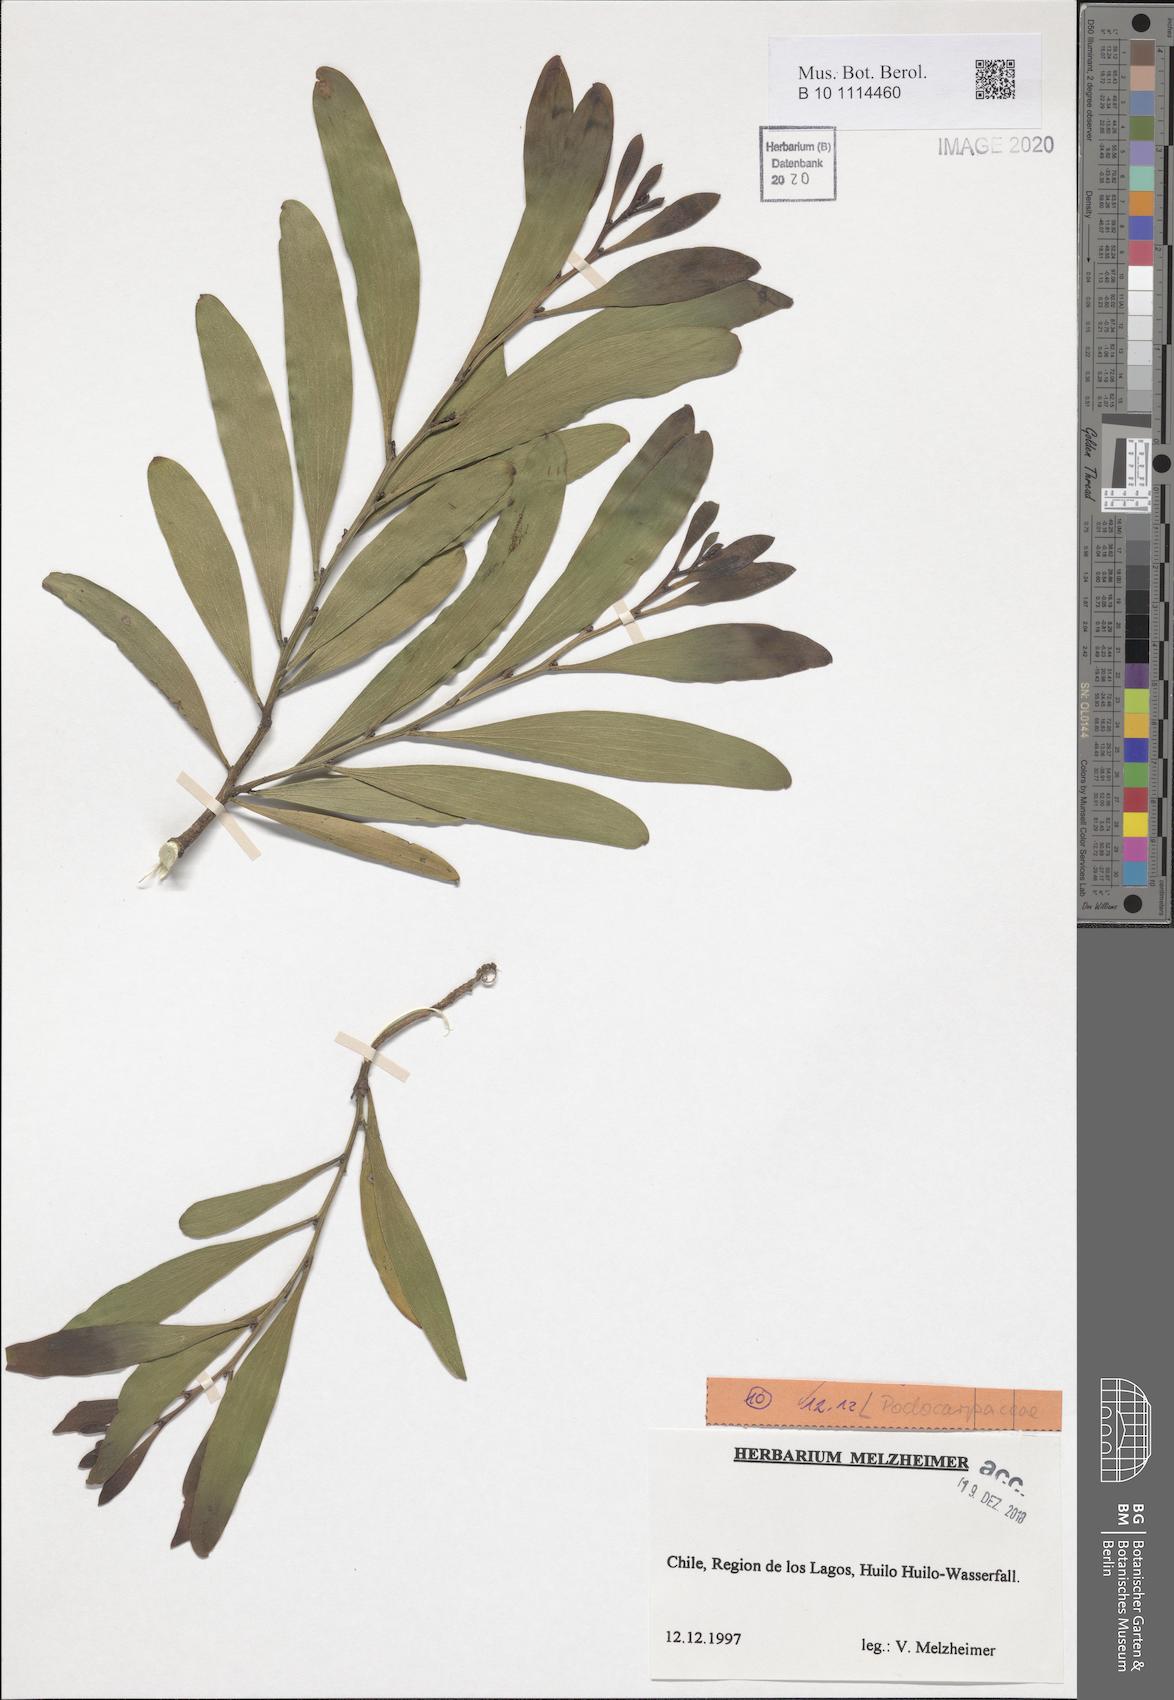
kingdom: Plantae
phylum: Tracheophyta
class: Pinopsida
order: Pinales
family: Podocarpaceae
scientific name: Podocarpaceae
